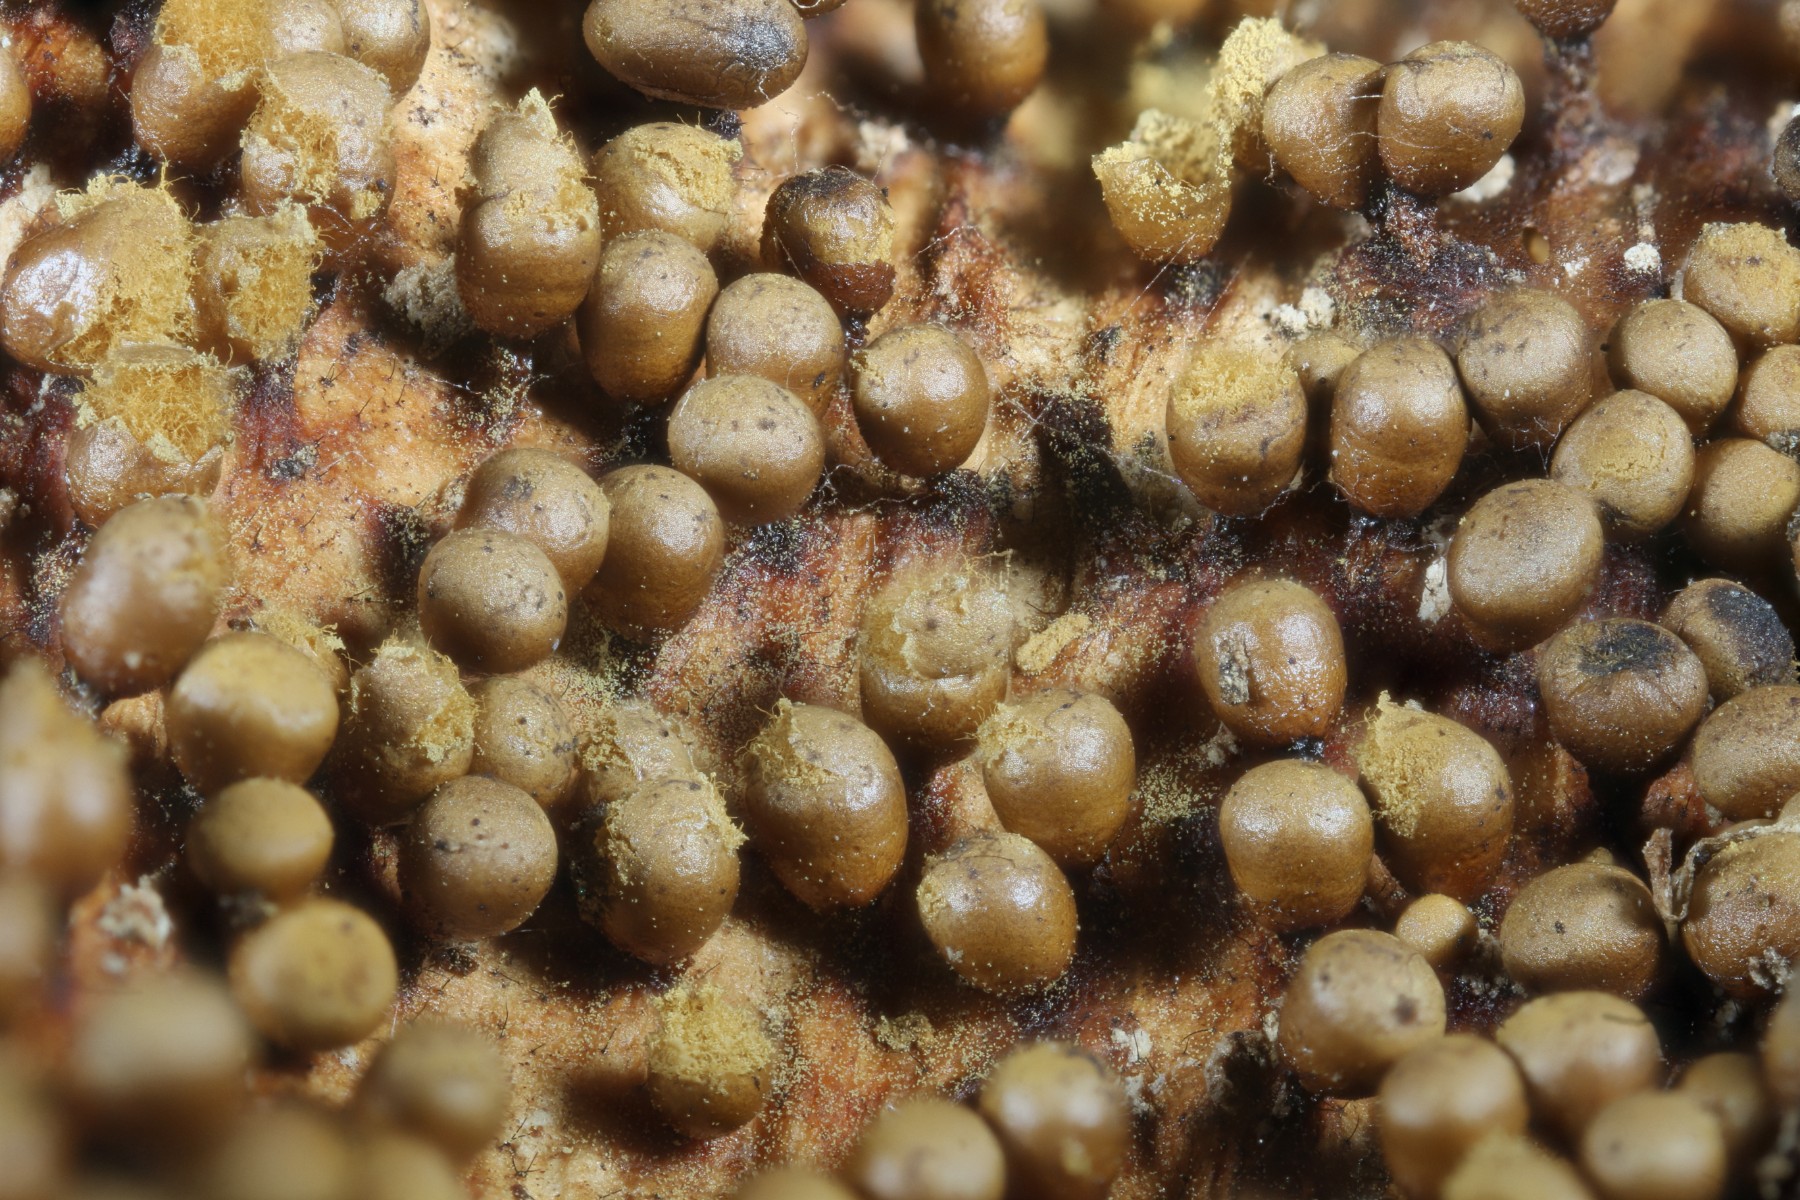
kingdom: Protozoa
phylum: Mycetozoa
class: Myxomycetes
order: Trichiales
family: Trichiaceae
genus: Trichia
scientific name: Trichia varia
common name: foranderlig hårbold
